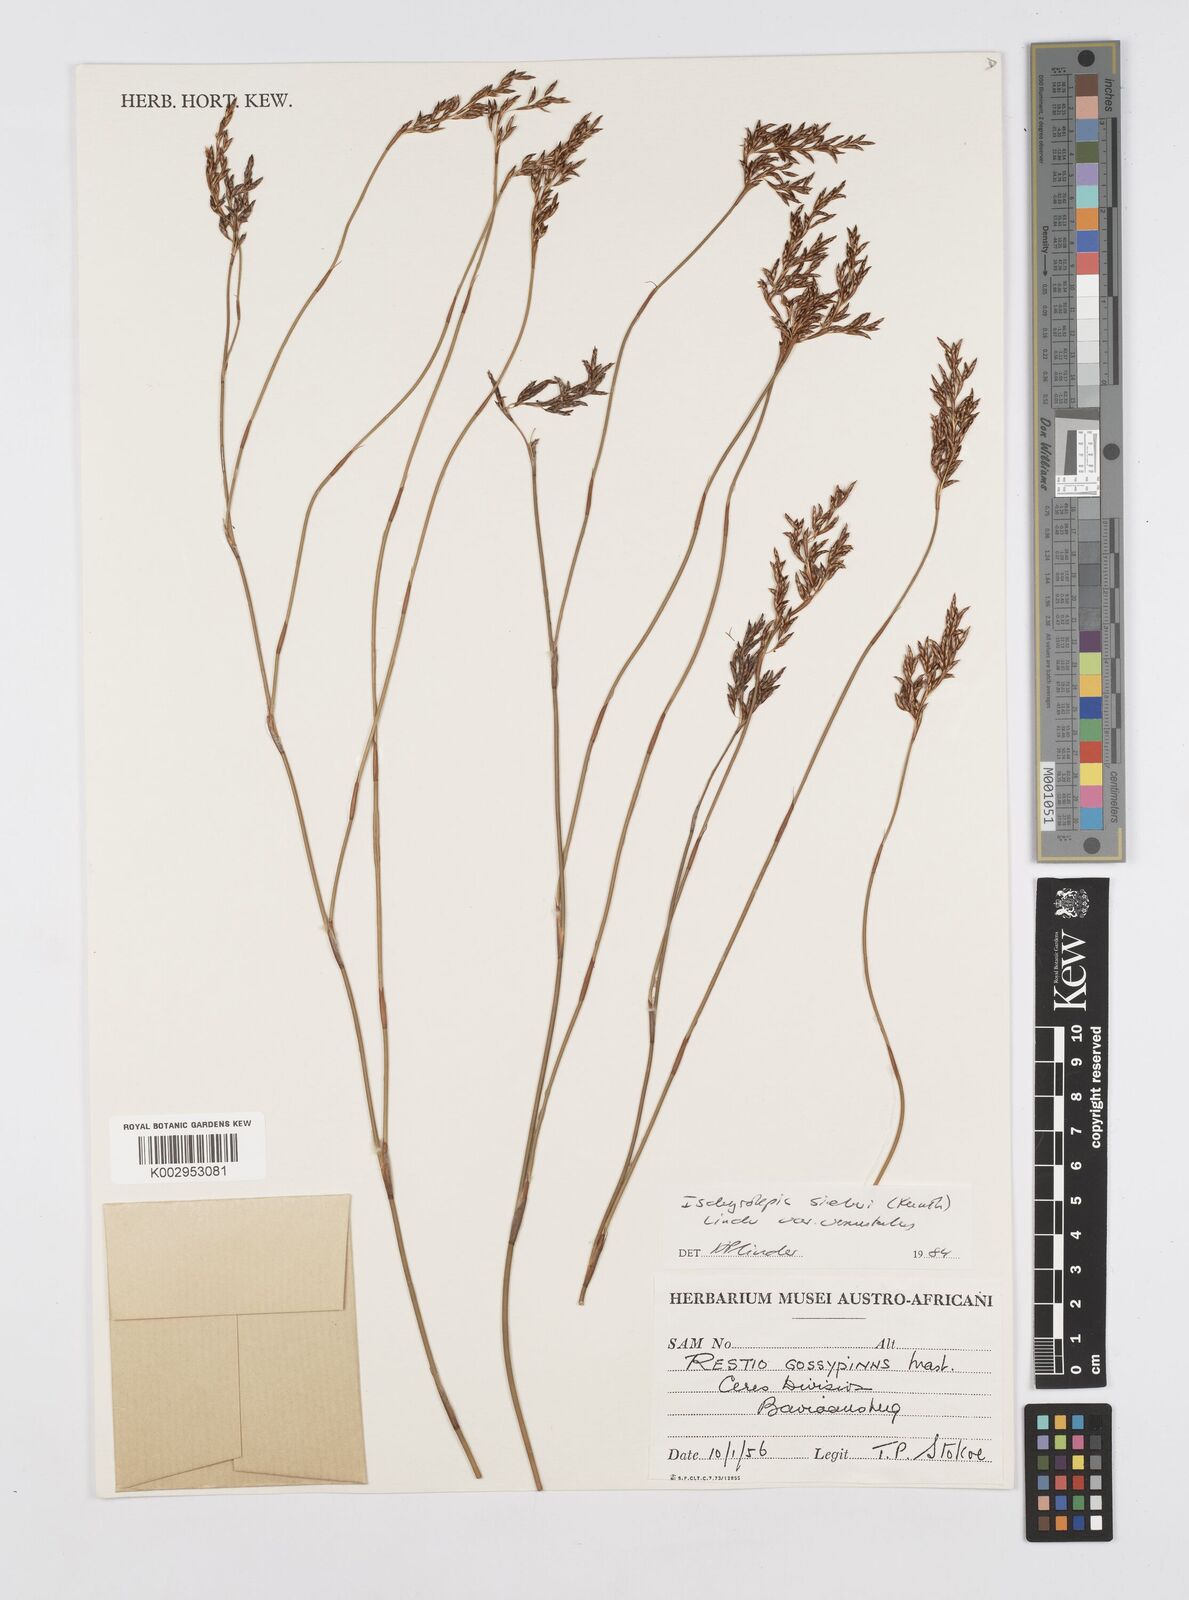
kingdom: Plantae
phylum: Tracheophyta
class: Liliopsida
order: Poales
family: Restionaceae
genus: Restio
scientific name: Restio sieberi
